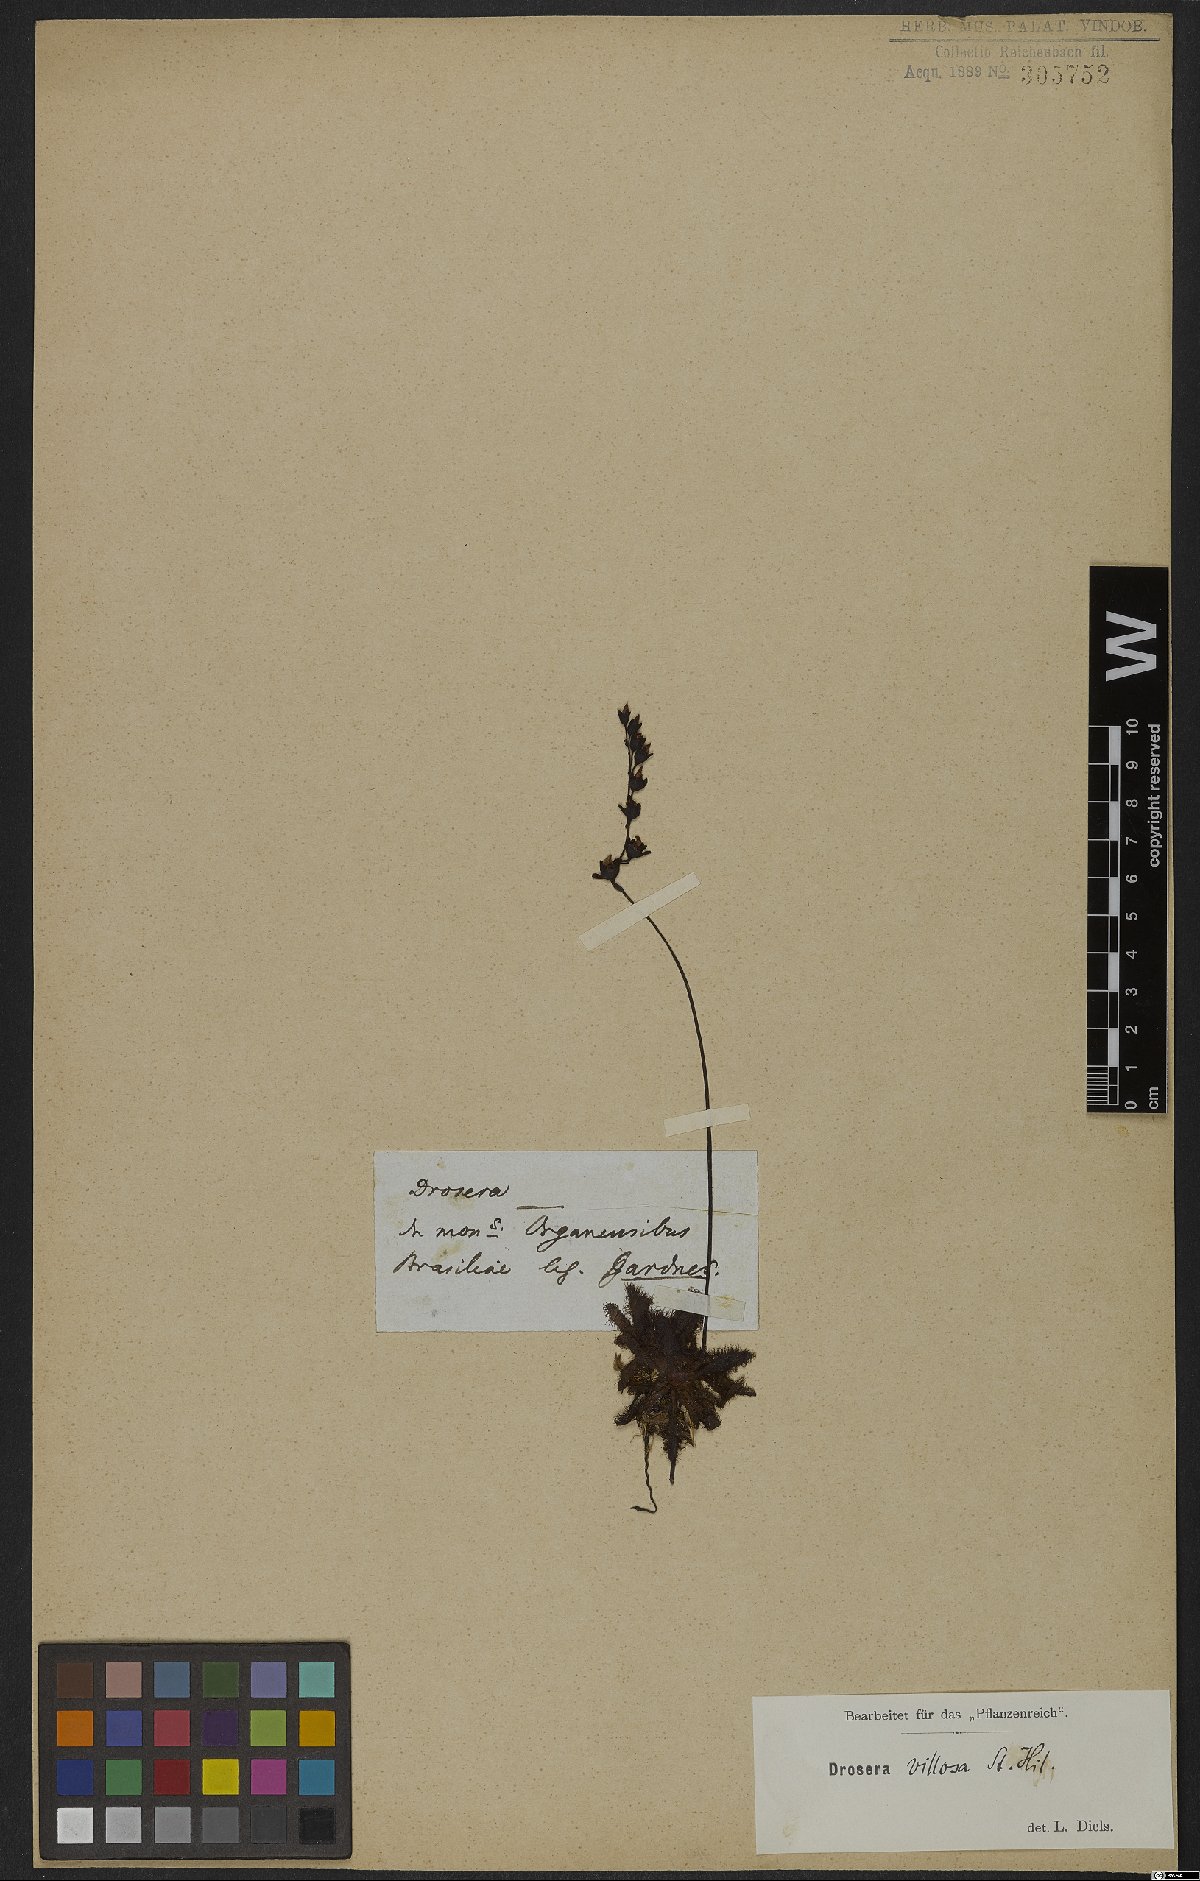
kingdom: Plantae
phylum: Tracheophyta
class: Magnoliopsida
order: Caryophyllales
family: Droseraceae
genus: Drosera
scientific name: Drosera latifolia
